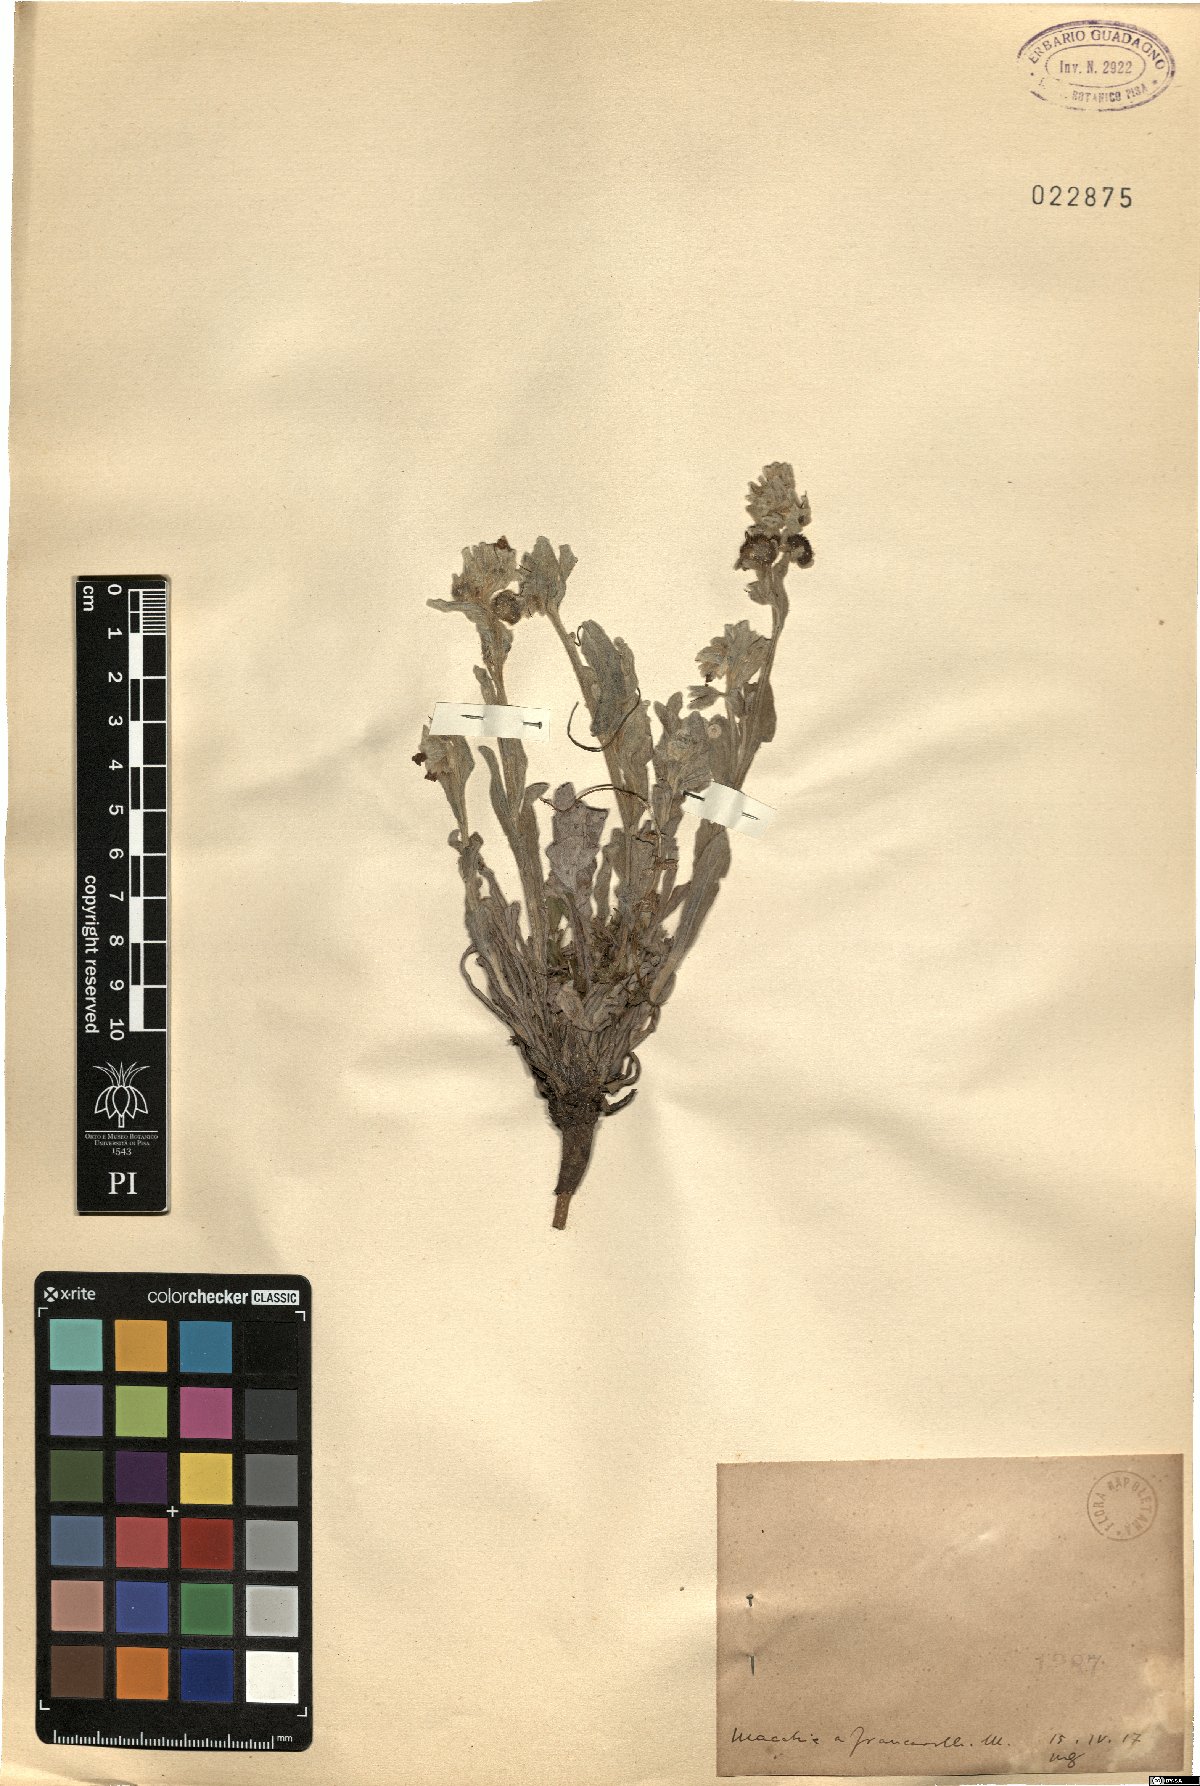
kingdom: Plantae
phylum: Tracheophyta
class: Magnoliopsida
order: Boraginales
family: Boraginaceae
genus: Cynoglossum
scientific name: Cynoglossum
